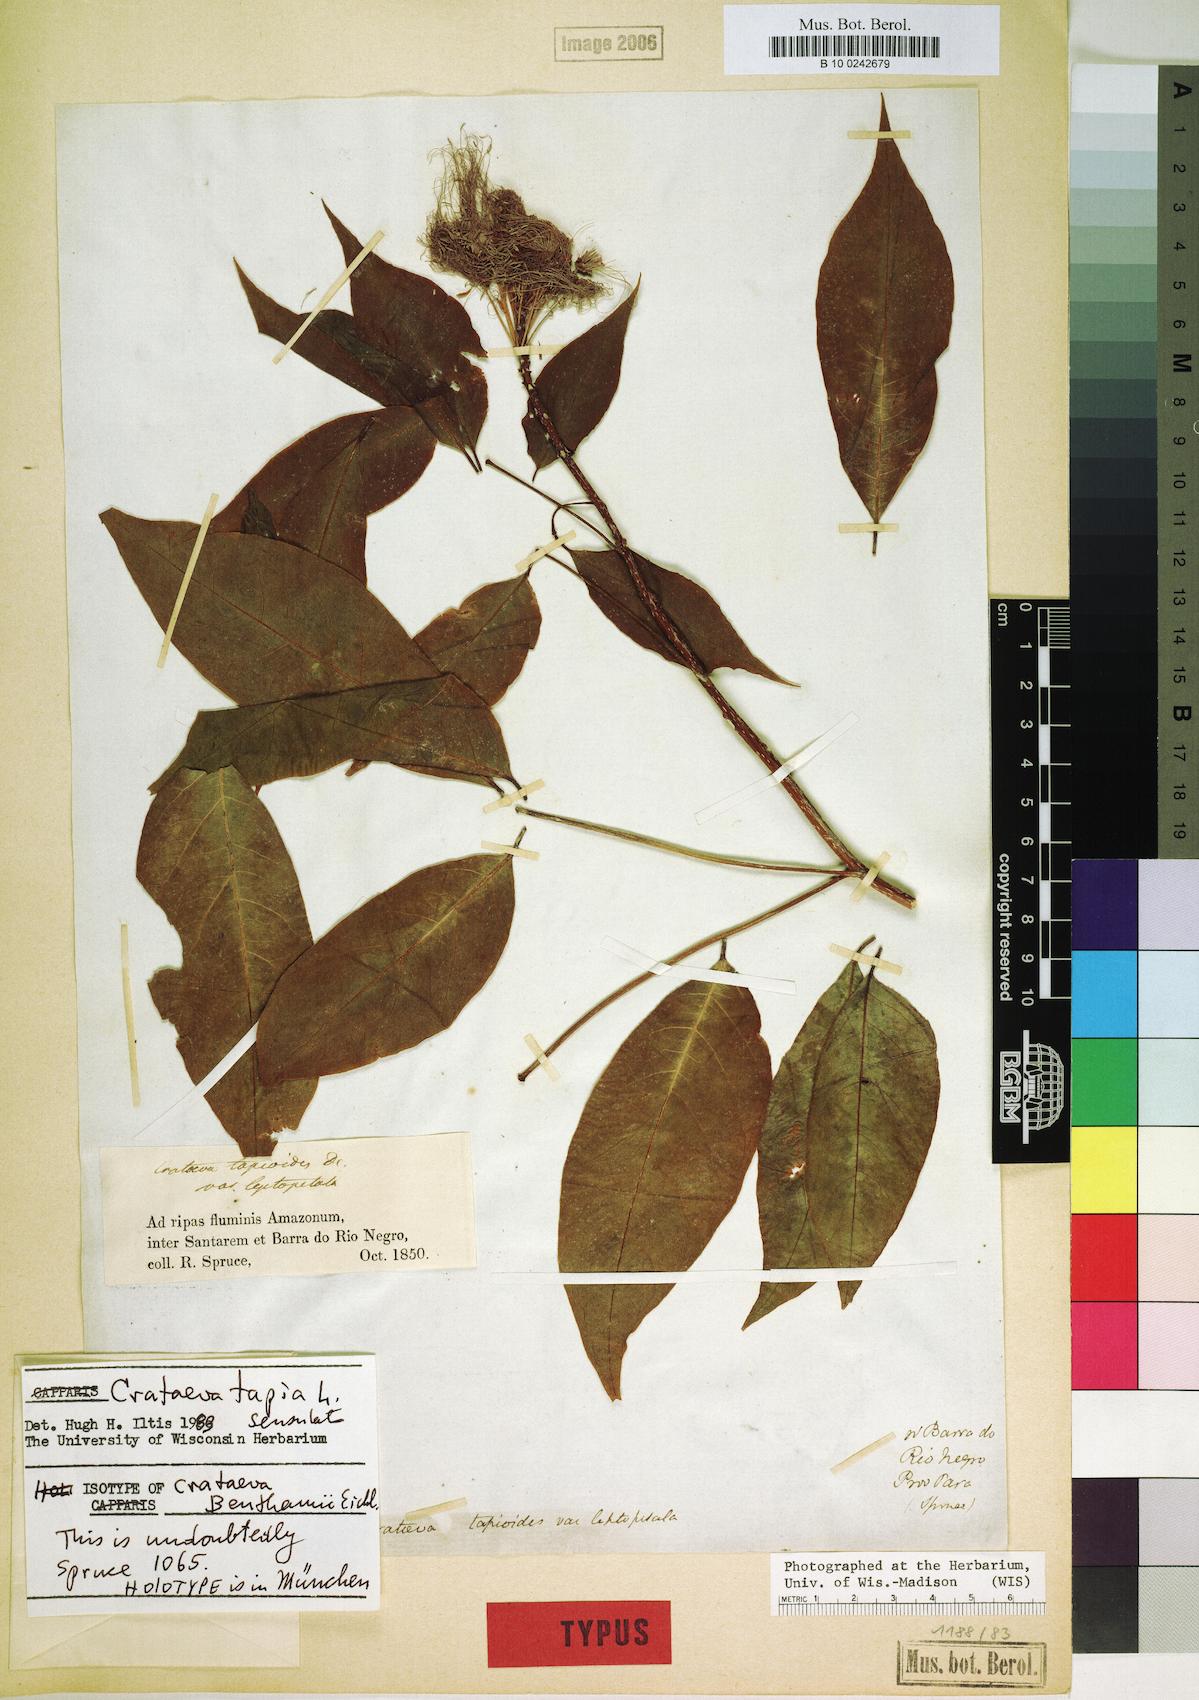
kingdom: Plantae
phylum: Tracheophyta
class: Magnoliopsida
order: Brassicales
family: Capparaceae
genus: Crateva
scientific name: Crateva tapia
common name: Garlic-pear
